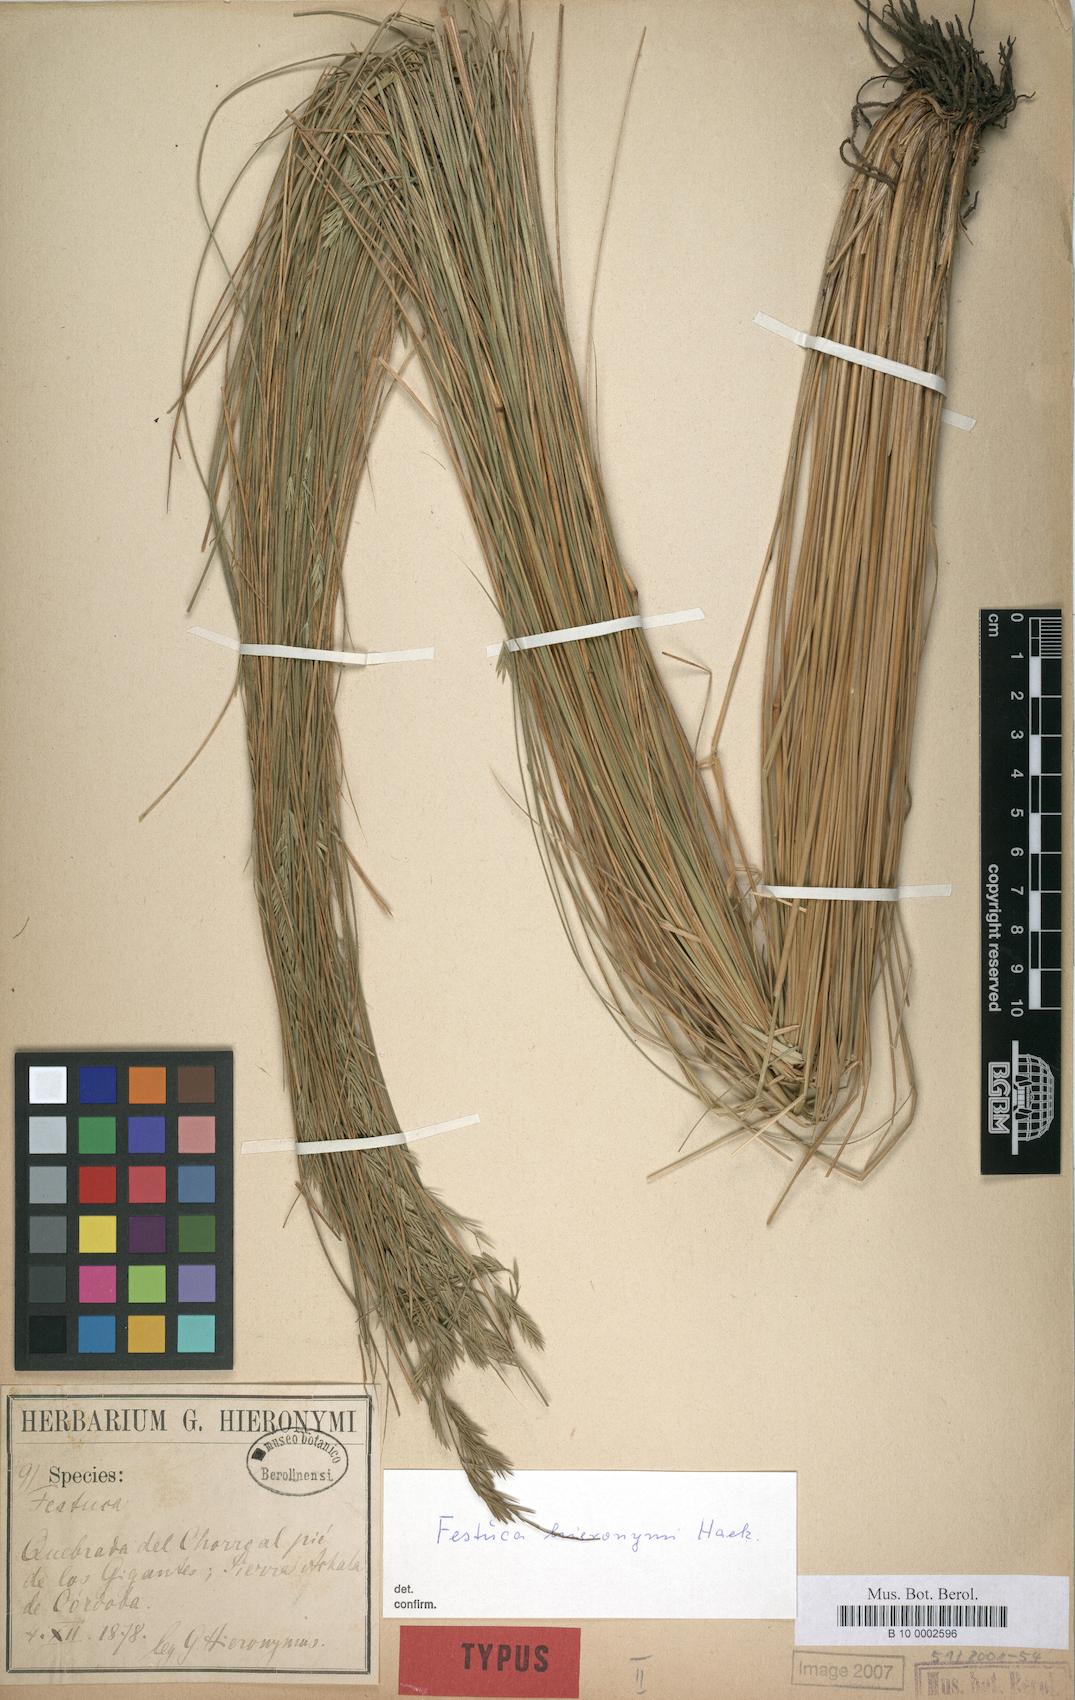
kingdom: Plantae
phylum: Tracheophyta
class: Liliopsida
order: Poales
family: Poaceae
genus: Festuca
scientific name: Festuca hieronymi
